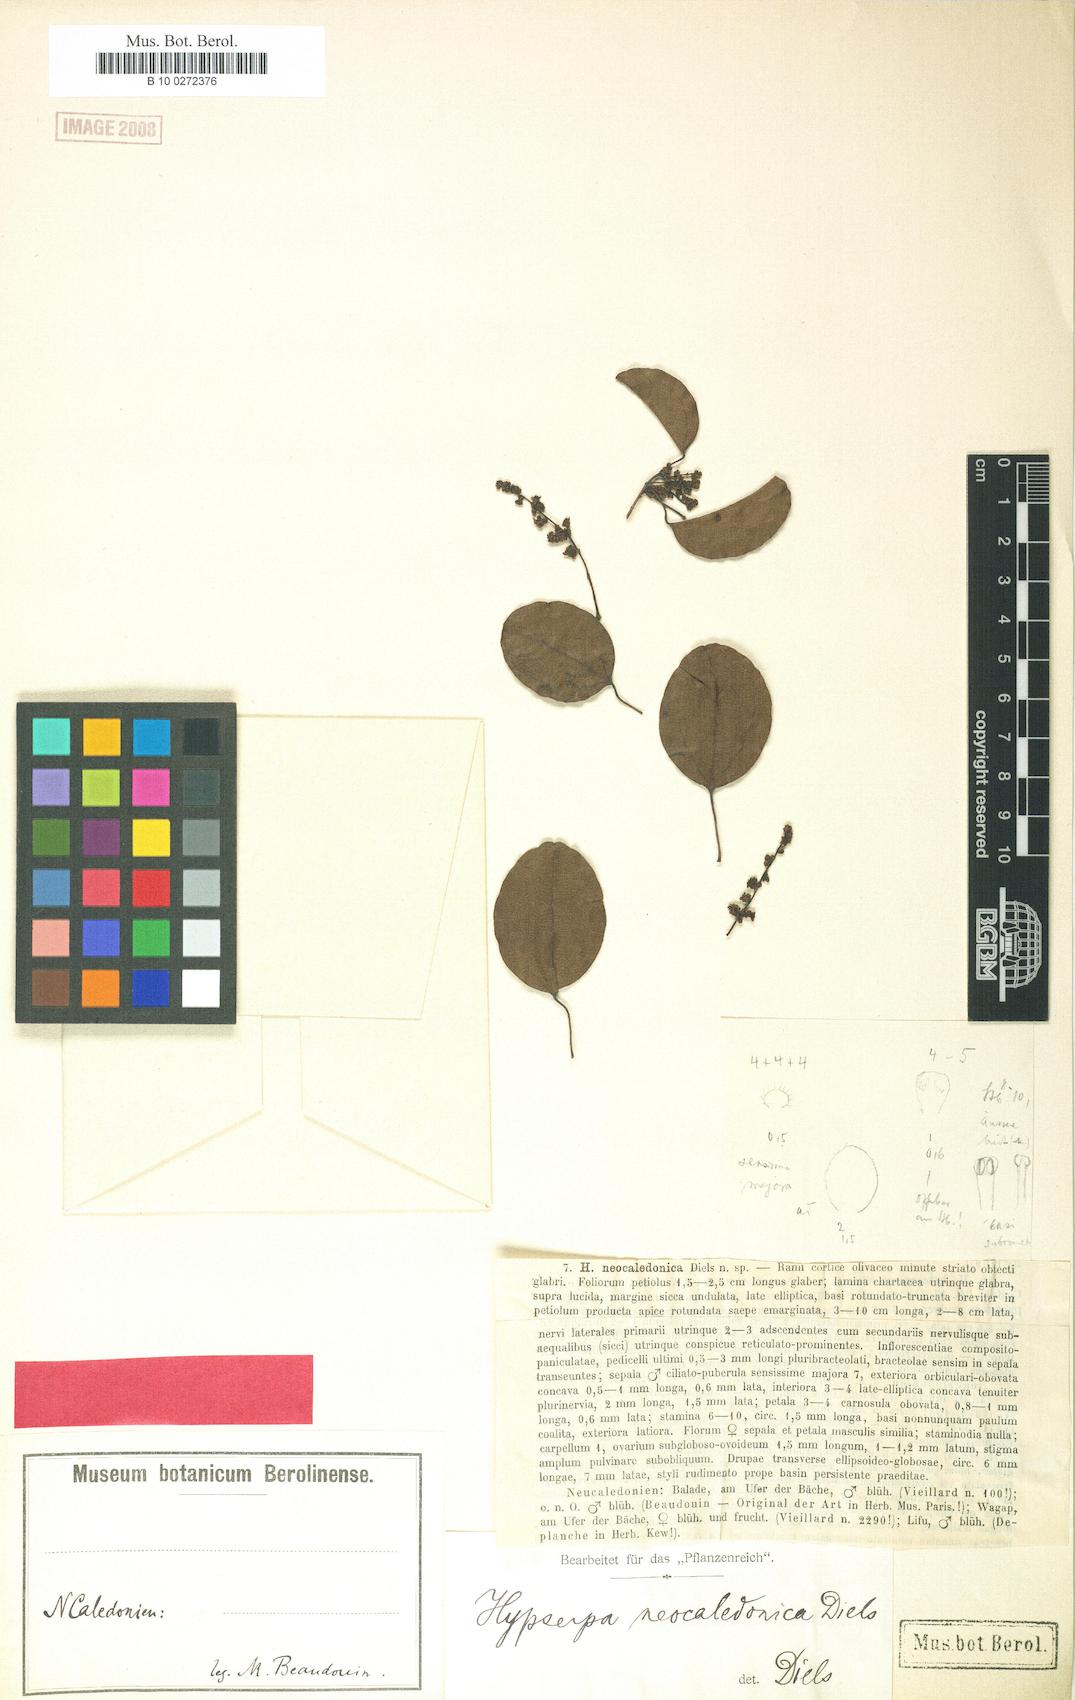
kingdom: Plantae
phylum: Tracheophyta
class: Magnoliopsida
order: Ranunculales
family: Menispermaceae
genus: Hypserpa
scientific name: Hypserpa neocaledonica
